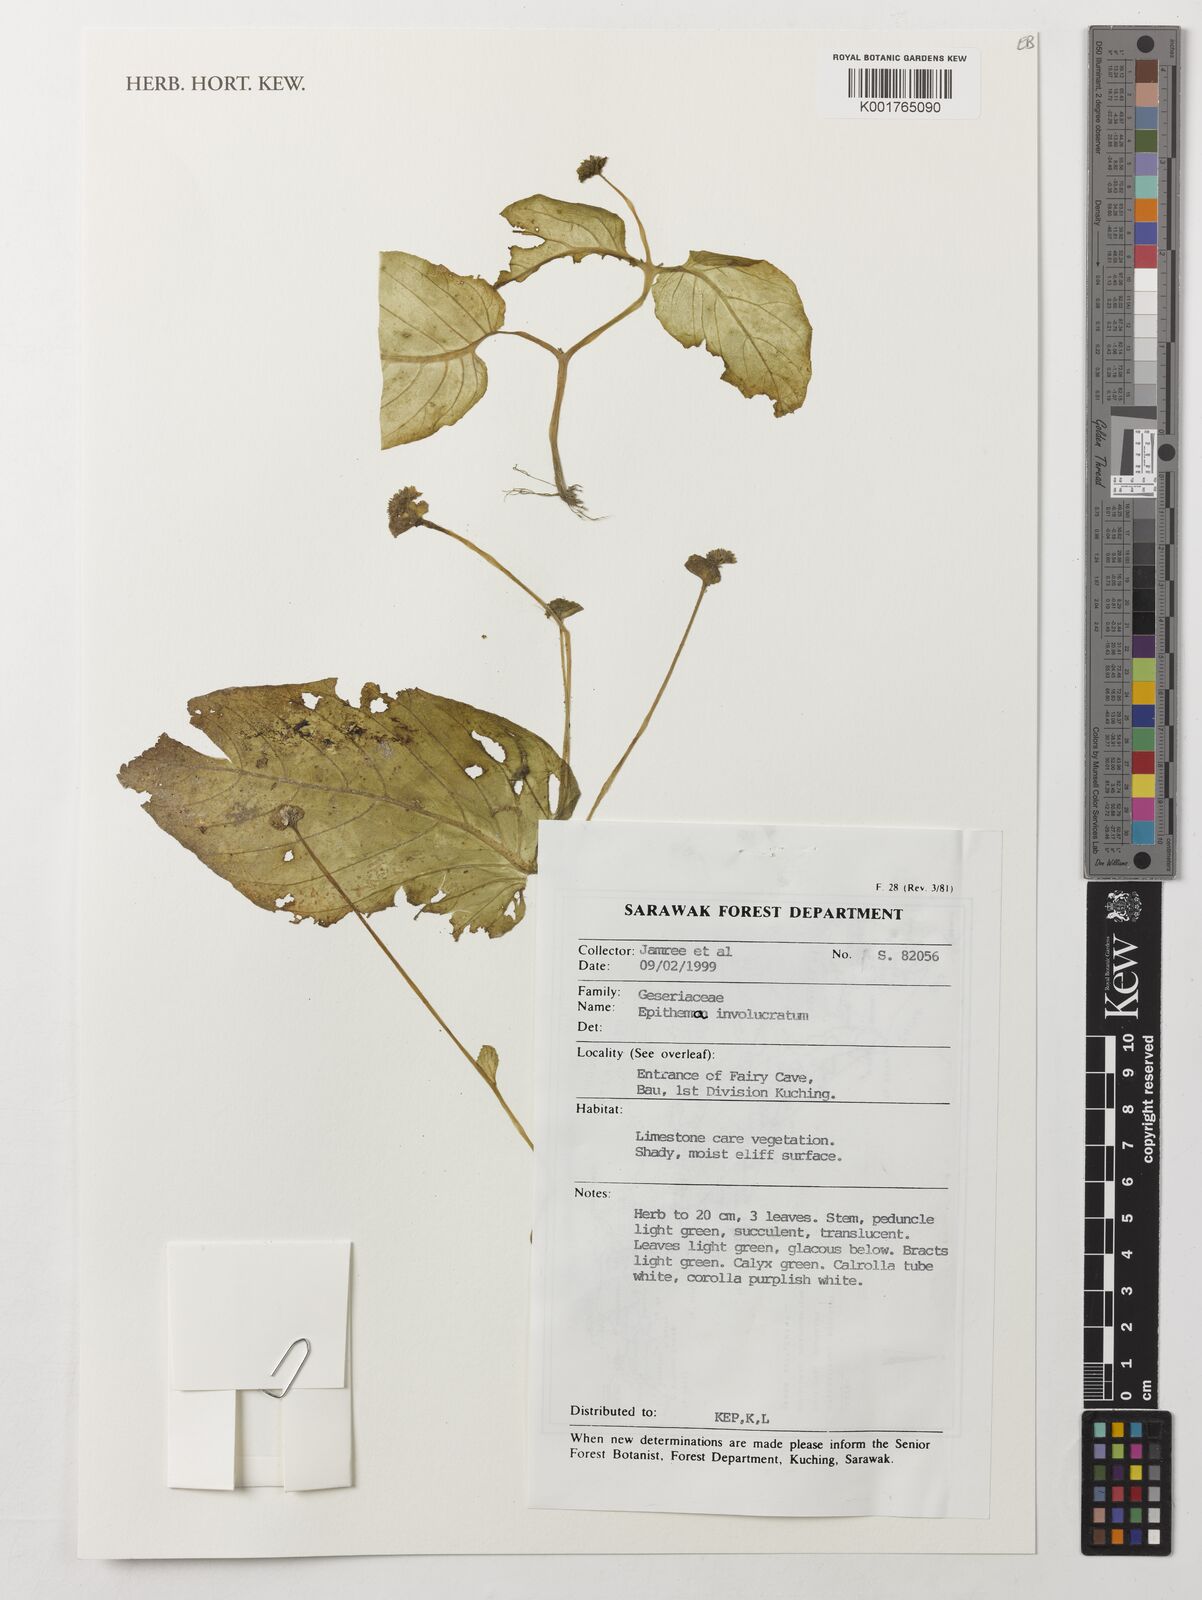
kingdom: Plantae
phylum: Tracheophyta
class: Magnoliopsida
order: Lamiales
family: Gesneriaceae
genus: Epithema
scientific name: Epithema involucratum
